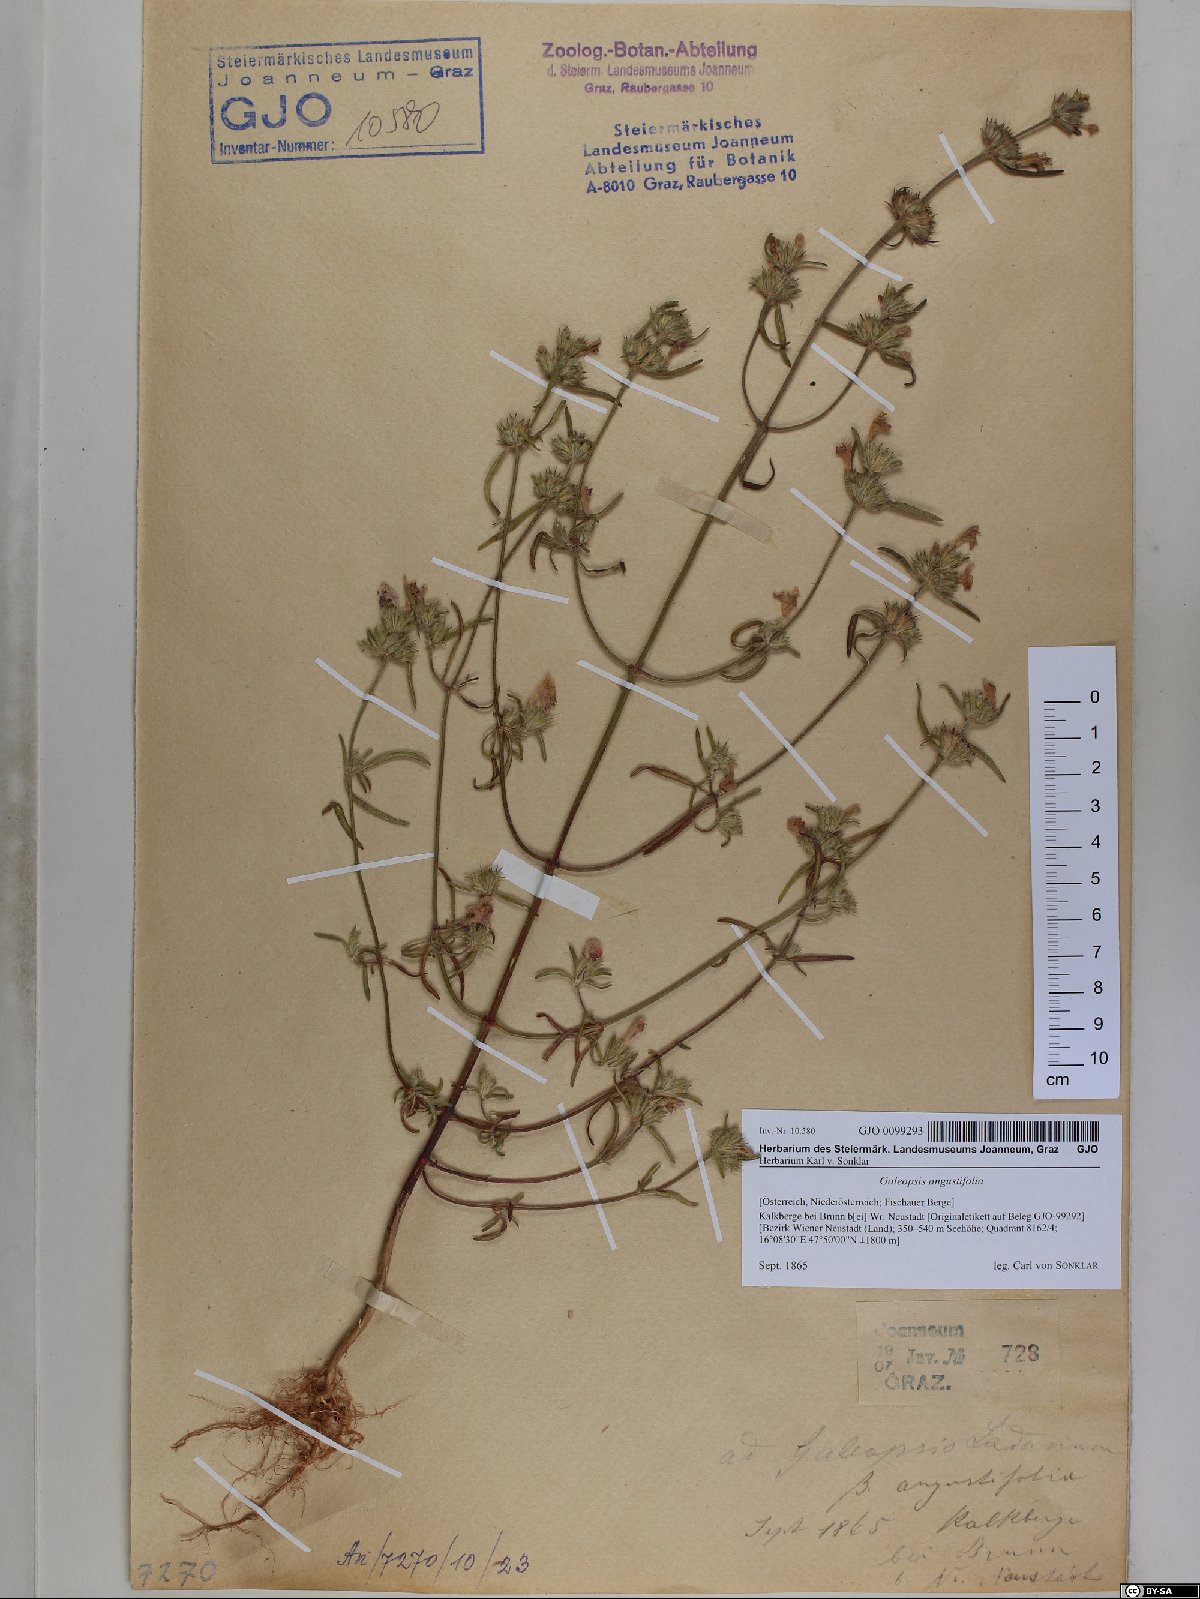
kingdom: Plantae
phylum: Tracheophyta
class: Magnoliopsida
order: Lamiales
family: Lamiaceae
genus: Galeopsis
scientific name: Galeopsis angustifolia
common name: Red hemp-nettle
